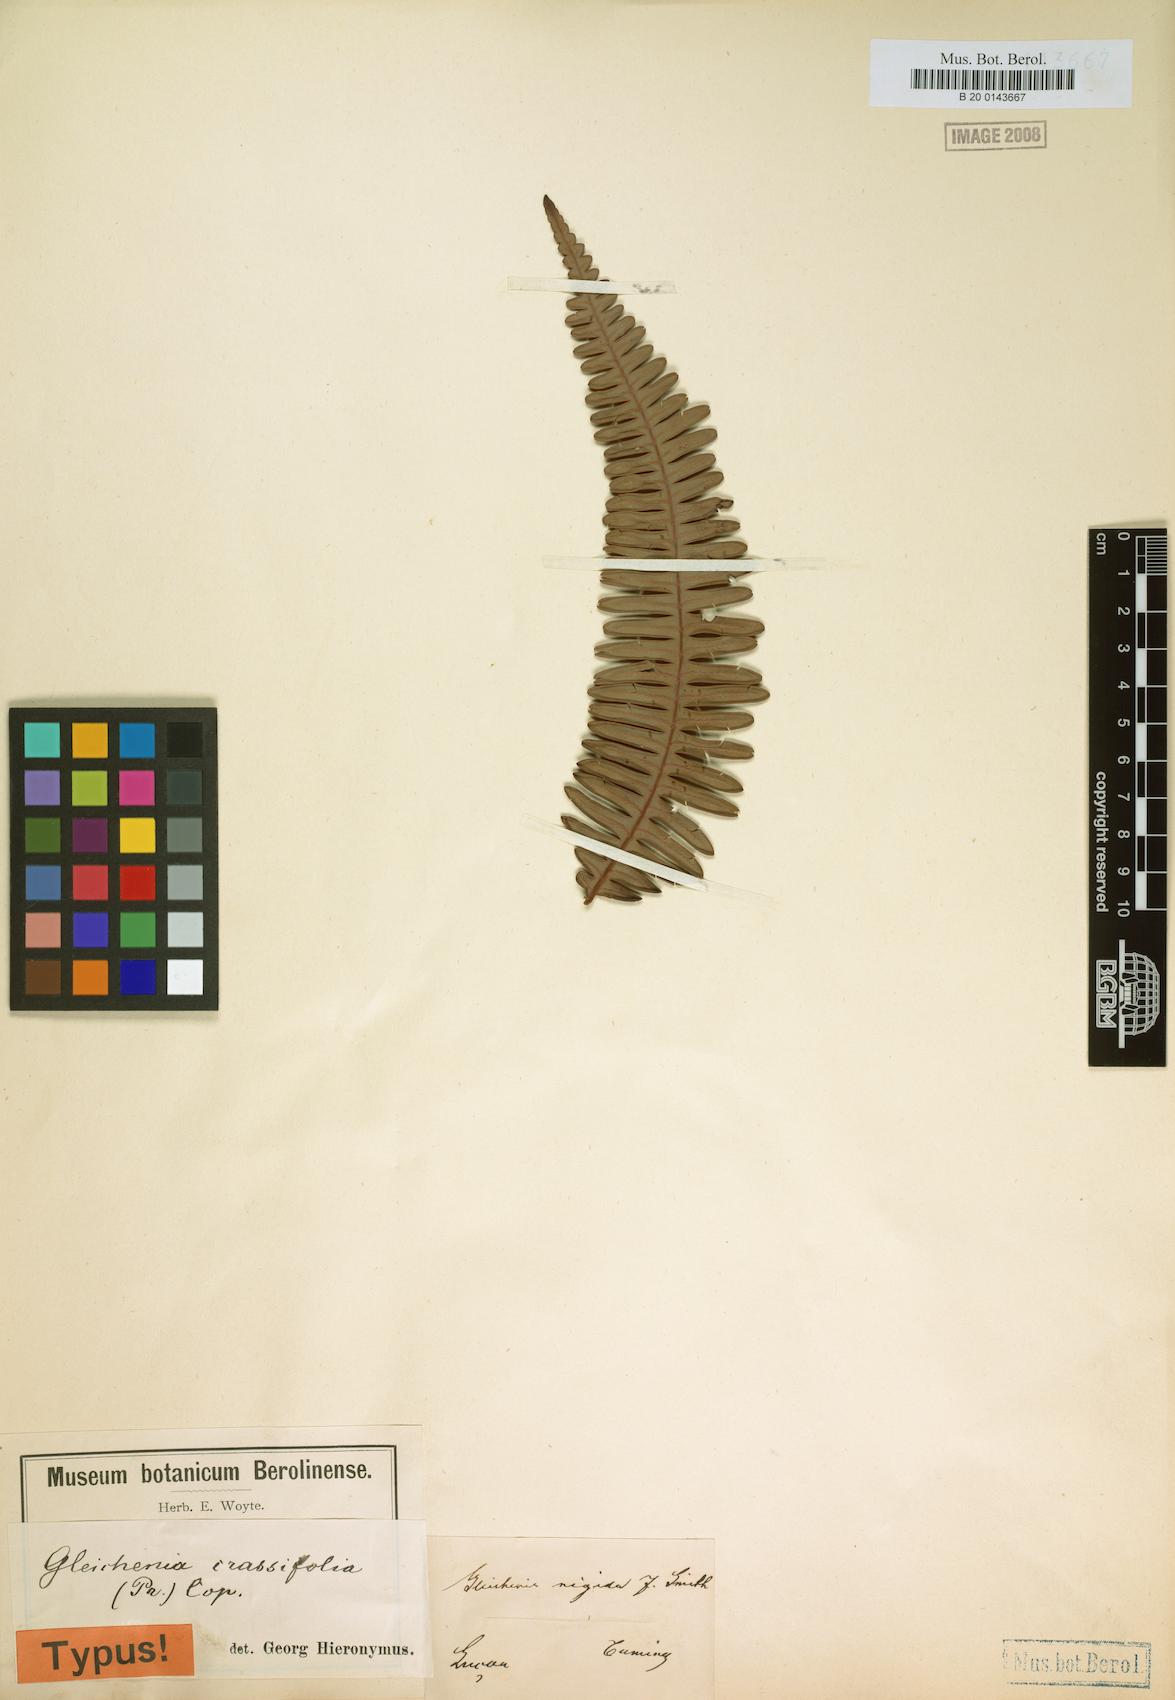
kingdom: Plantae
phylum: Tracheophyta
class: Polypodiopsida
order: Gleicheniales
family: Gleicheniaceae
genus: Dicranopteris
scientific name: Dicranopteris
